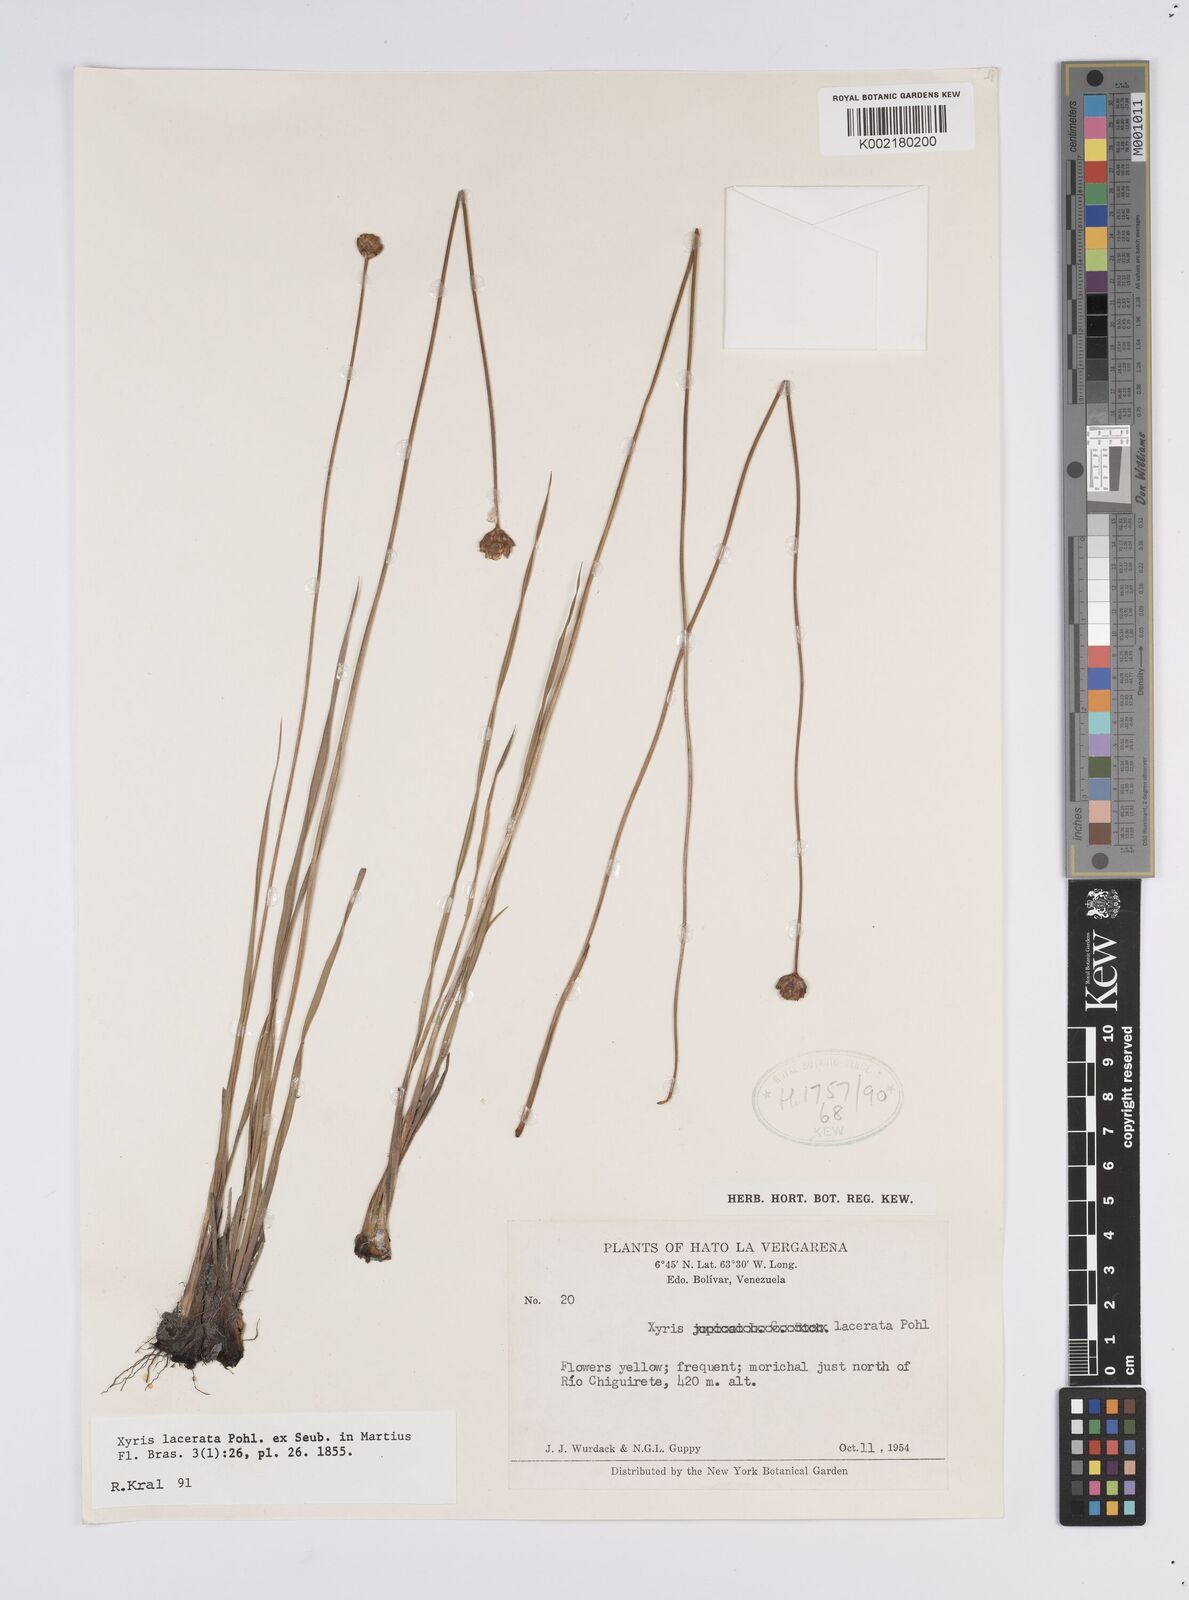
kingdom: Plantae
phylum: Tracheophyta
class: Liliopsida
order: Poales
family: Xyridaceae
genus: Xyris
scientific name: Xyris lacerata
